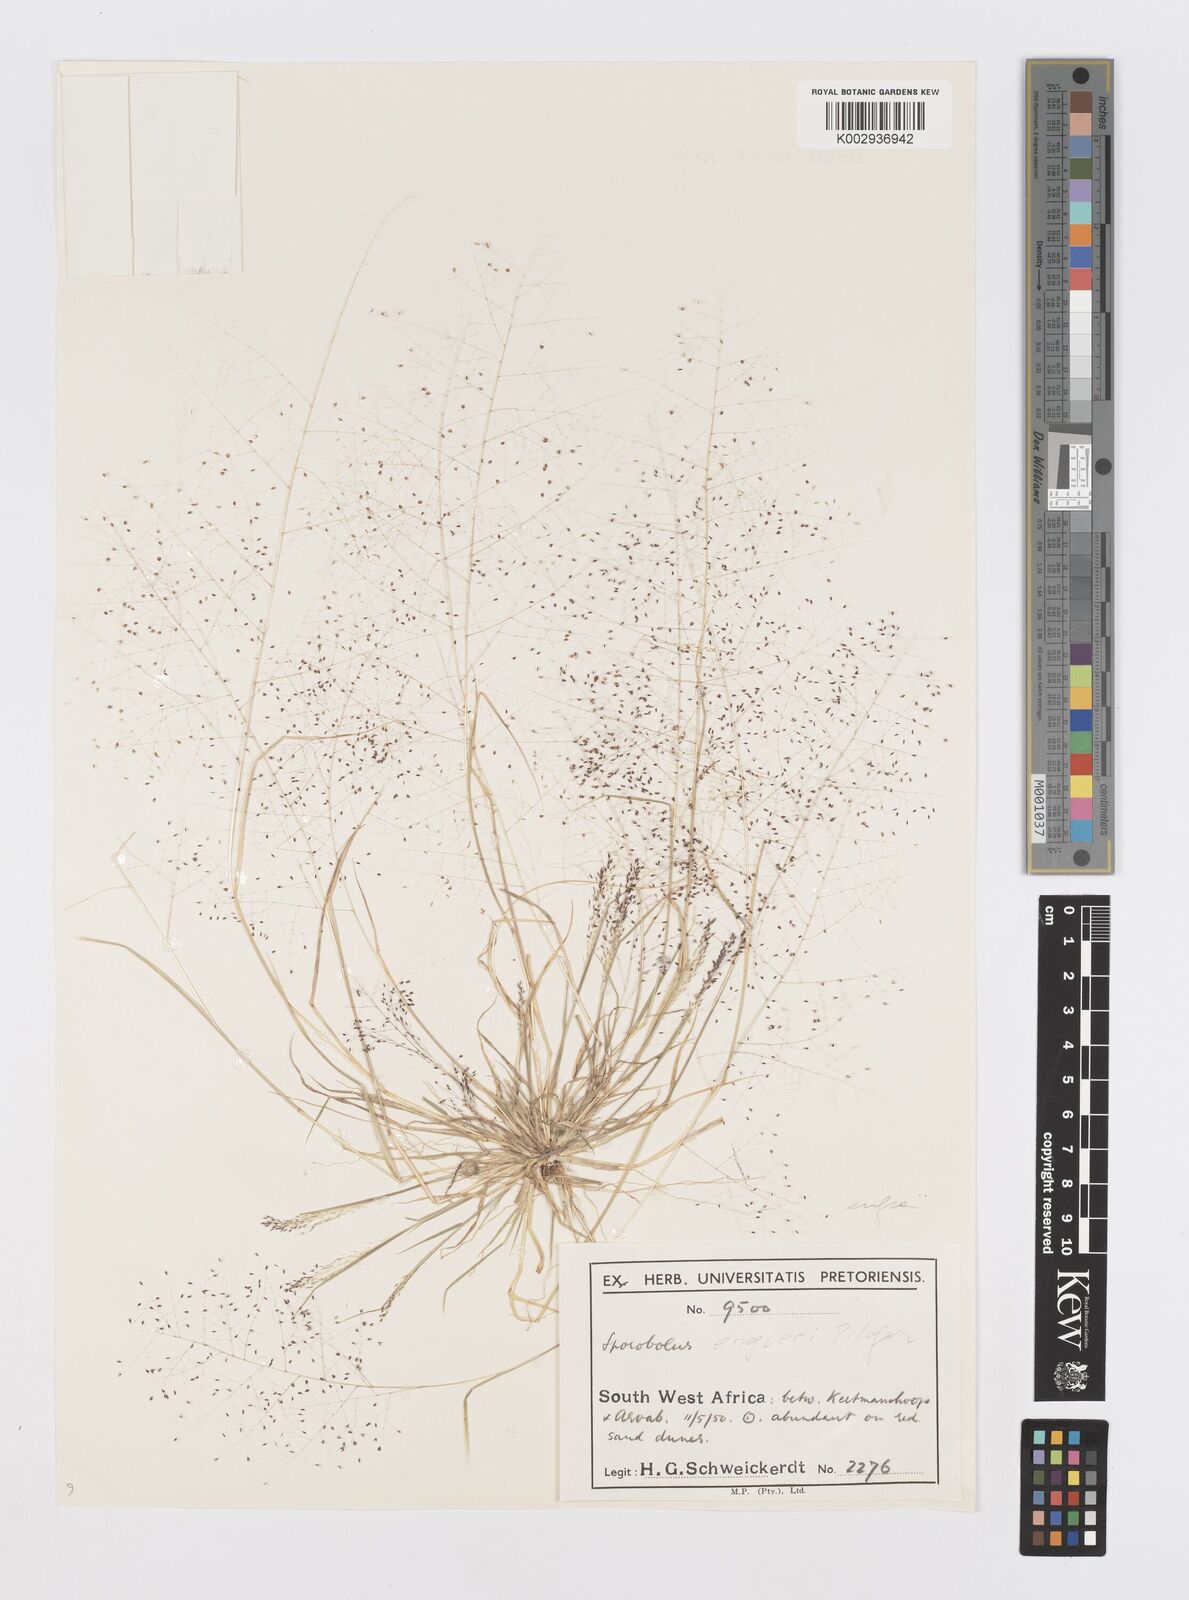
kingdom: Plantae
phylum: Tracheophyta
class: Liliopsida
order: Poales
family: Poaceae
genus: Sporobolus
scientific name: Sporobolus engleri
